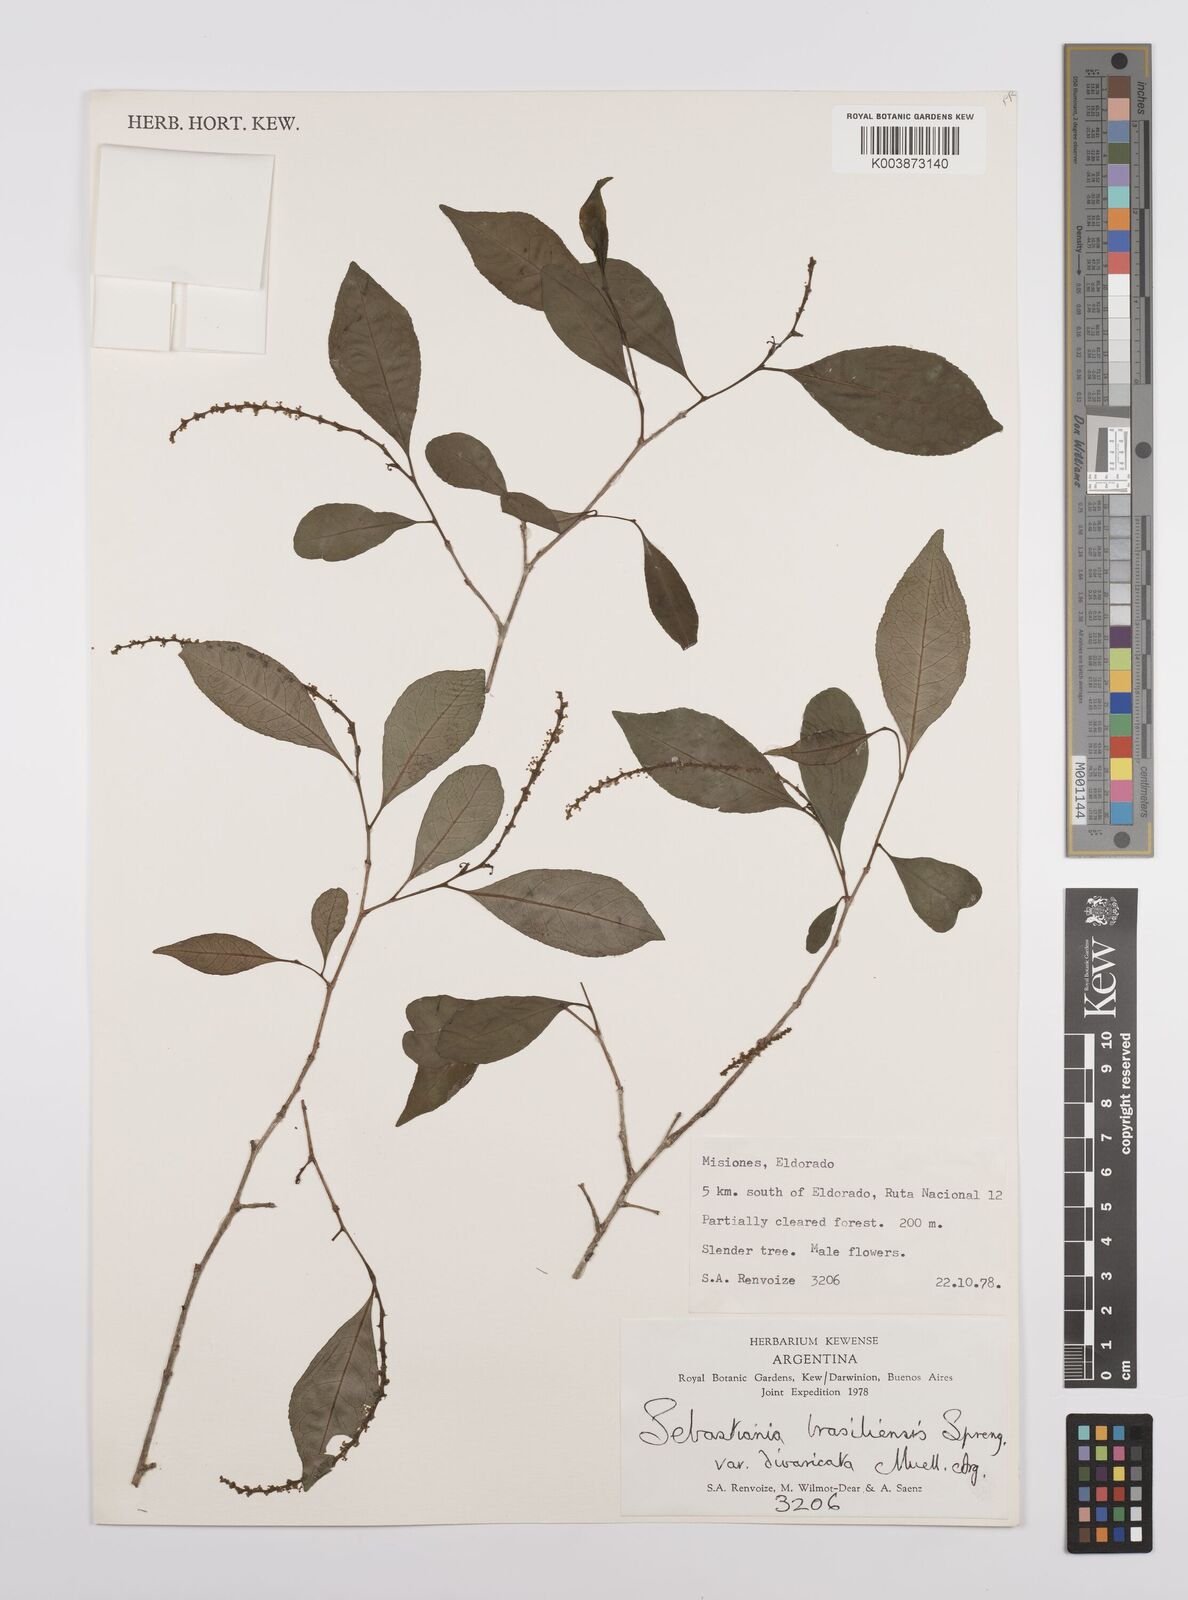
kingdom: Plantae
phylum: Tracheophyta
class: Magnoliopsida
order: Malpighiales
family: Euphorbiaceae
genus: Sebastiania
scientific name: Sebastiania ramosissima
